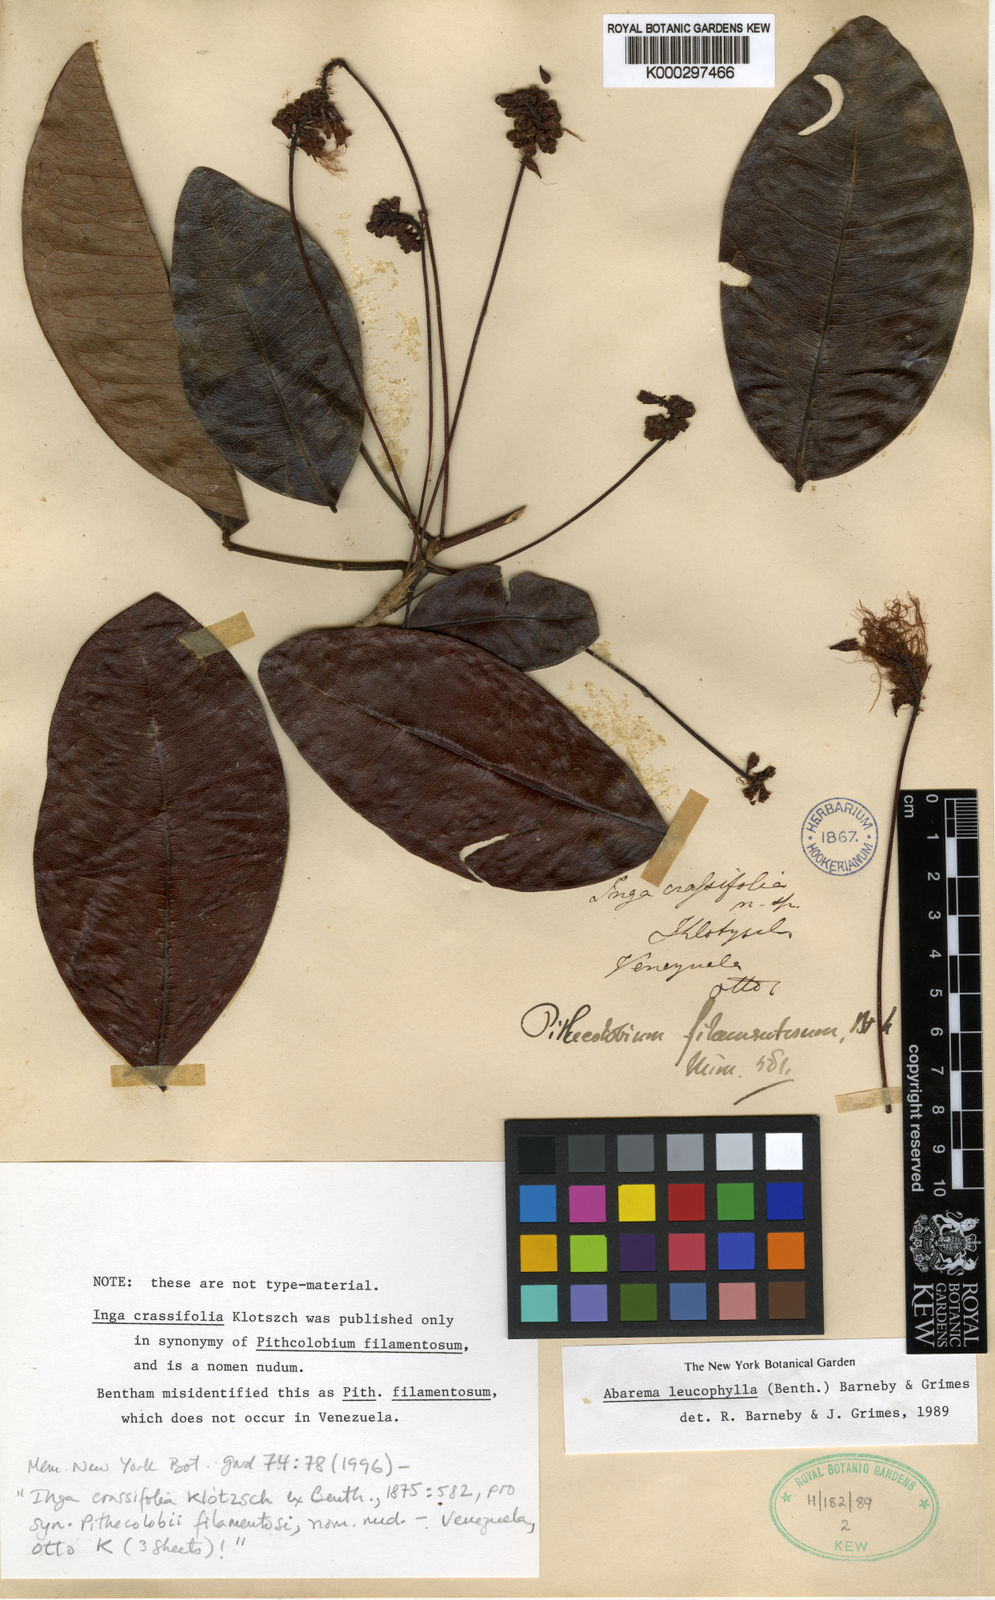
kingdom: Plantae
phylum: Tracheophyta
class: Magnoliopsida
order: Fabales
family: Fabaceae
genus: Jupunba
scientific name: Jupunba leucophylla
